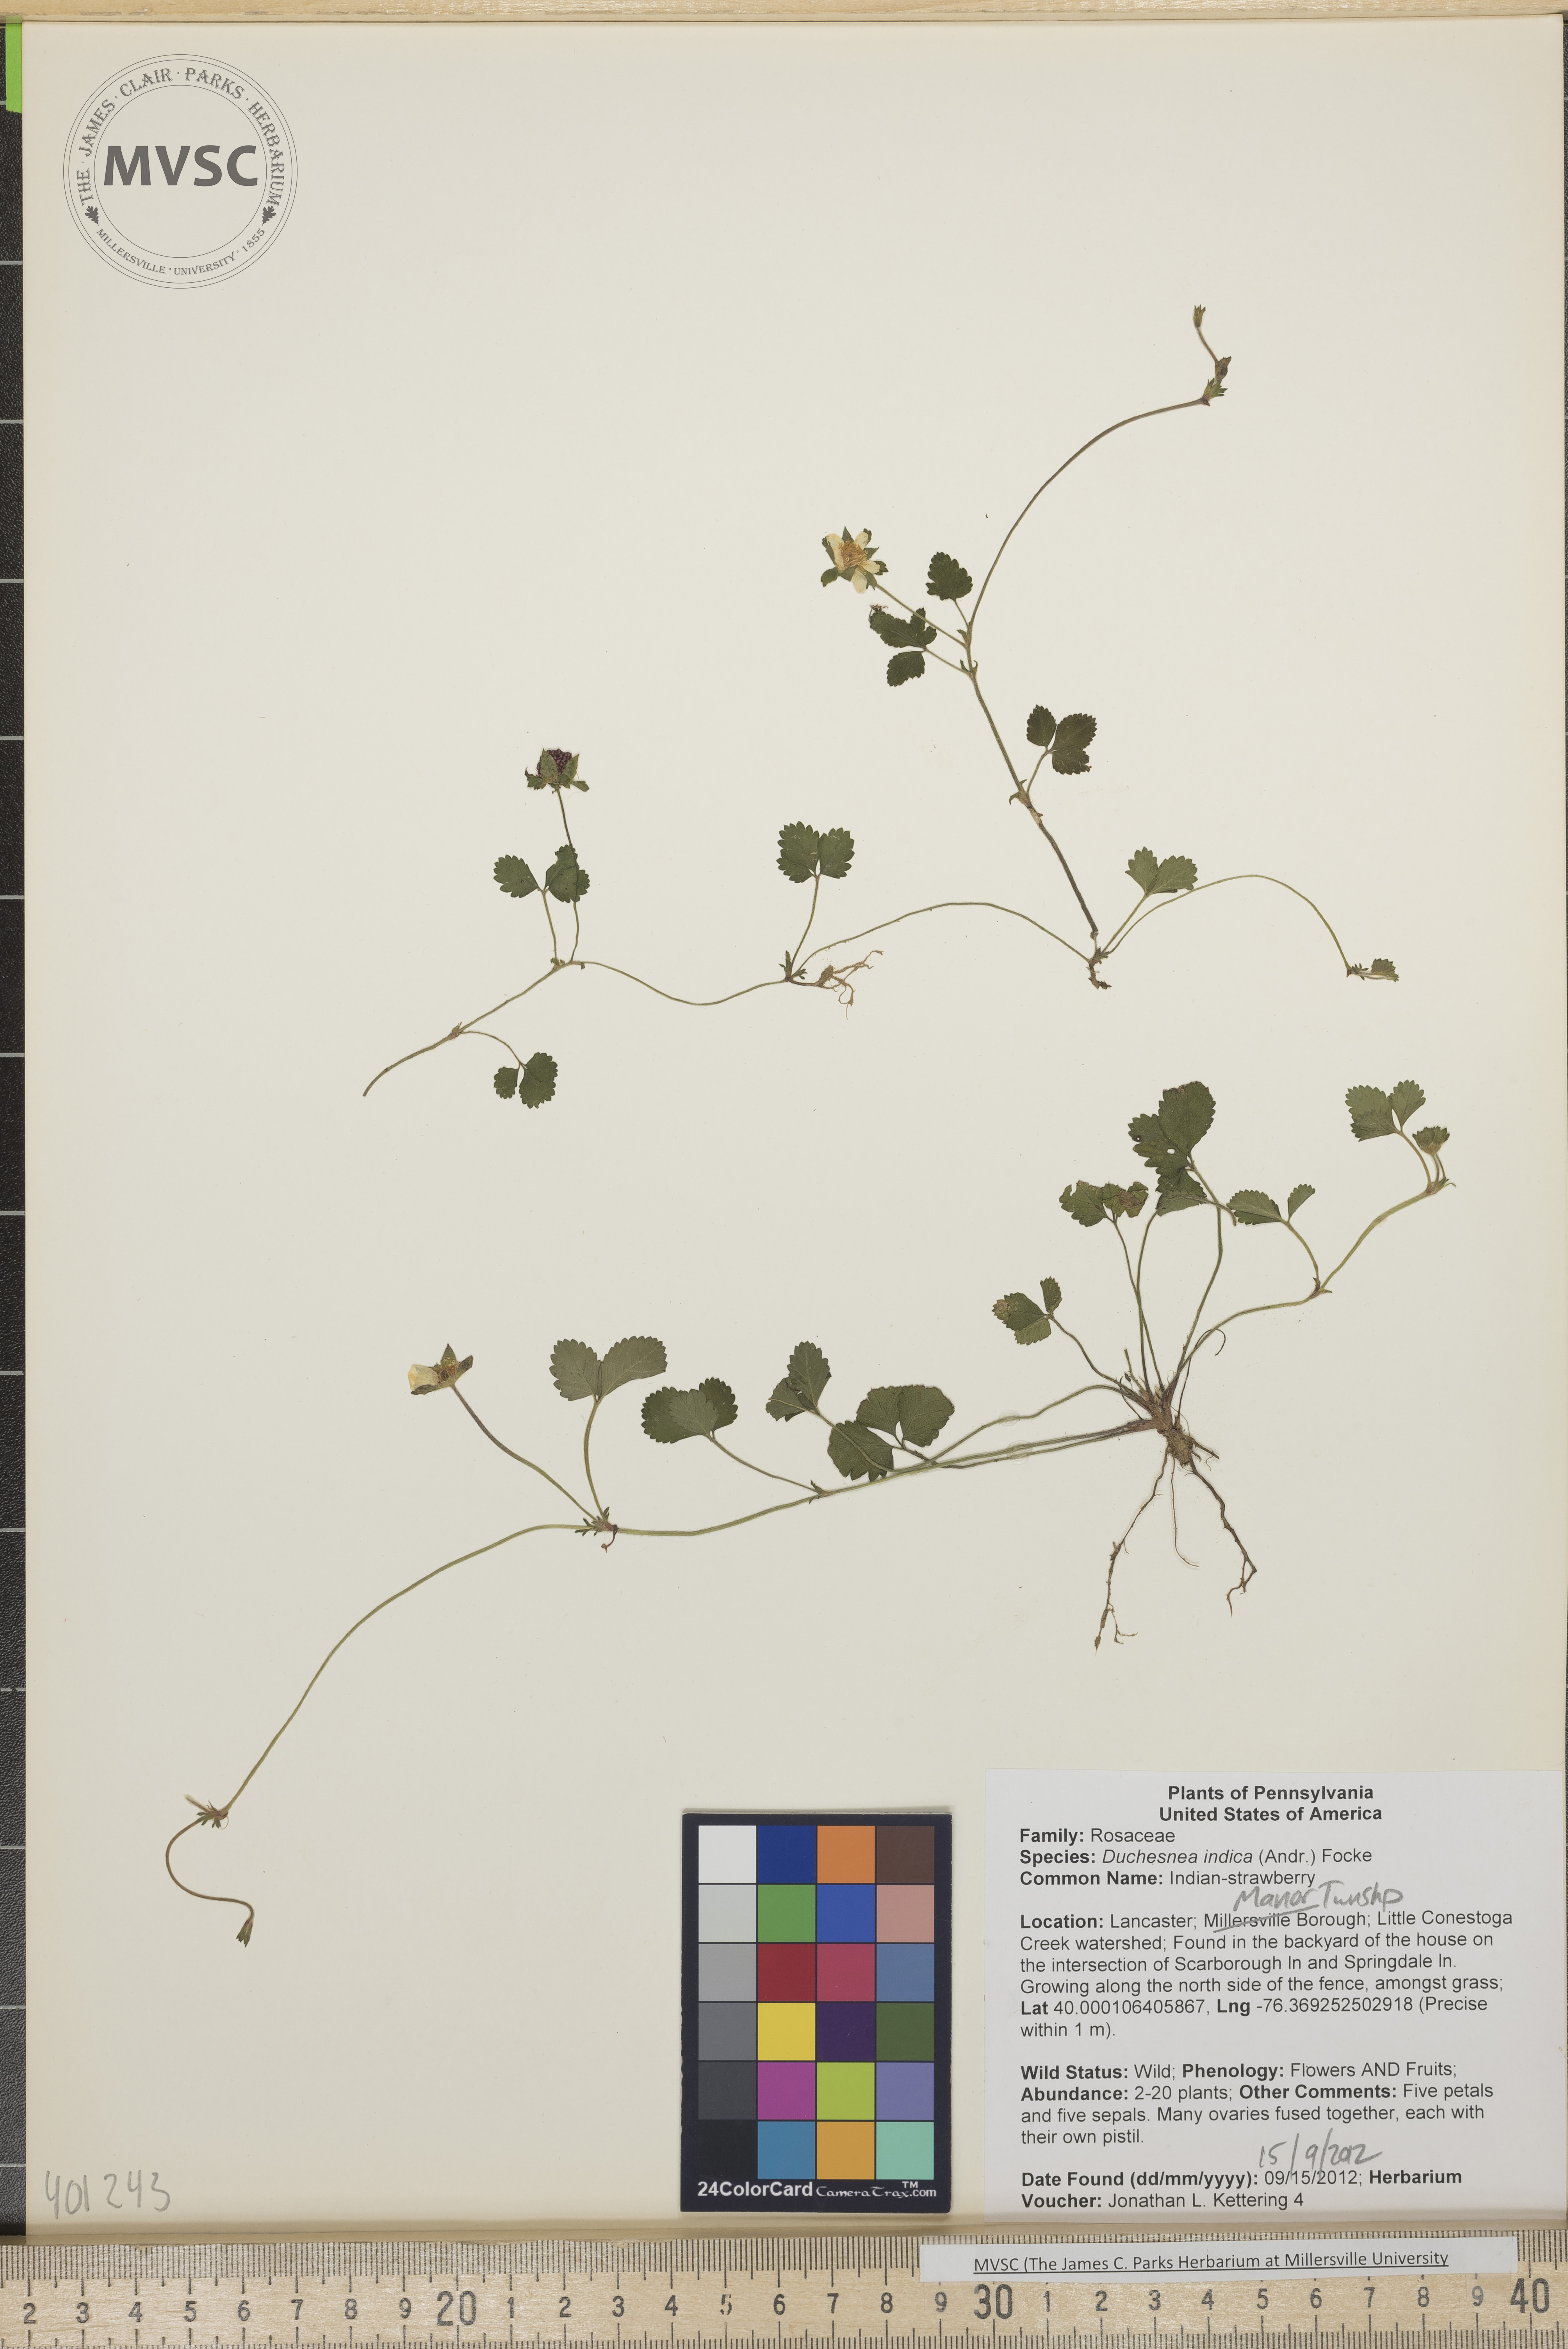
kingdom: Plantae
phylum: Tracheophyta
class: Magnoliopsida
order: Rosales
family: Rosaceae
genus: Potentilla
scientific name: Potentilla indica
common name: Indian-strawberry
